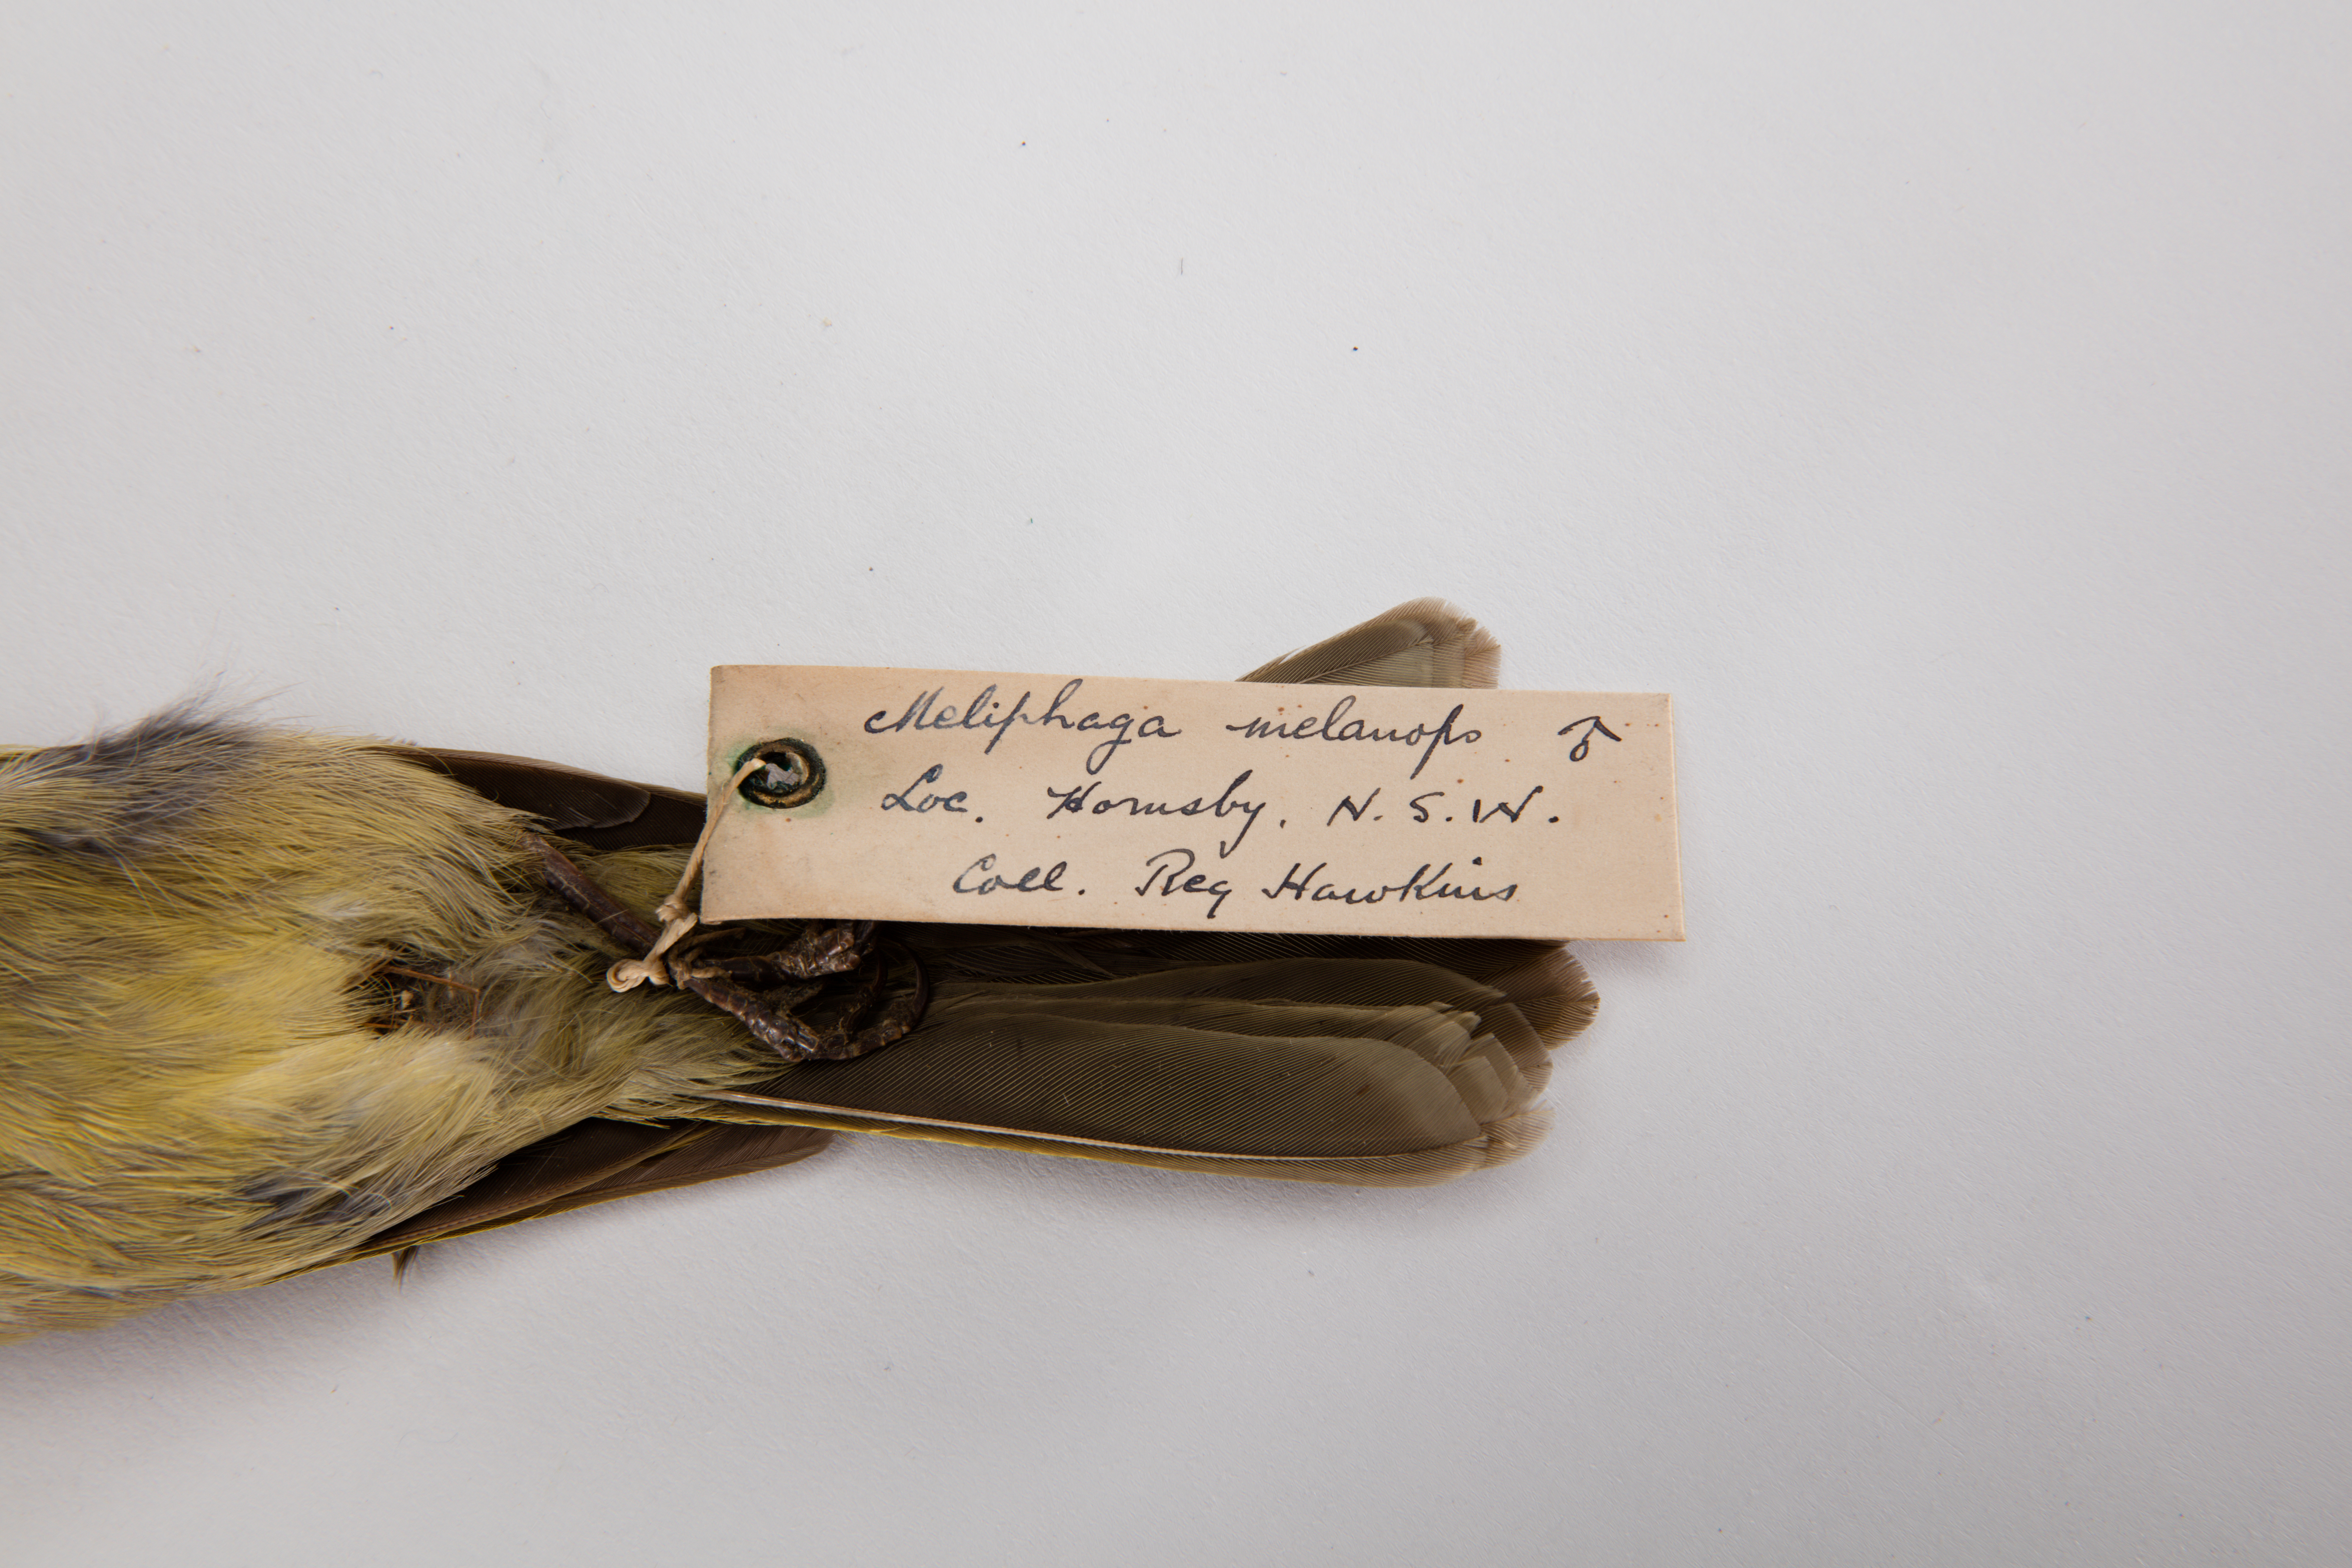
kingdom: Animalia
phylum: Chordata
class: Aves
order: Passeriformes
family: Meliphagidae
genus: Meliphaga
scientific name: Meliphaga
